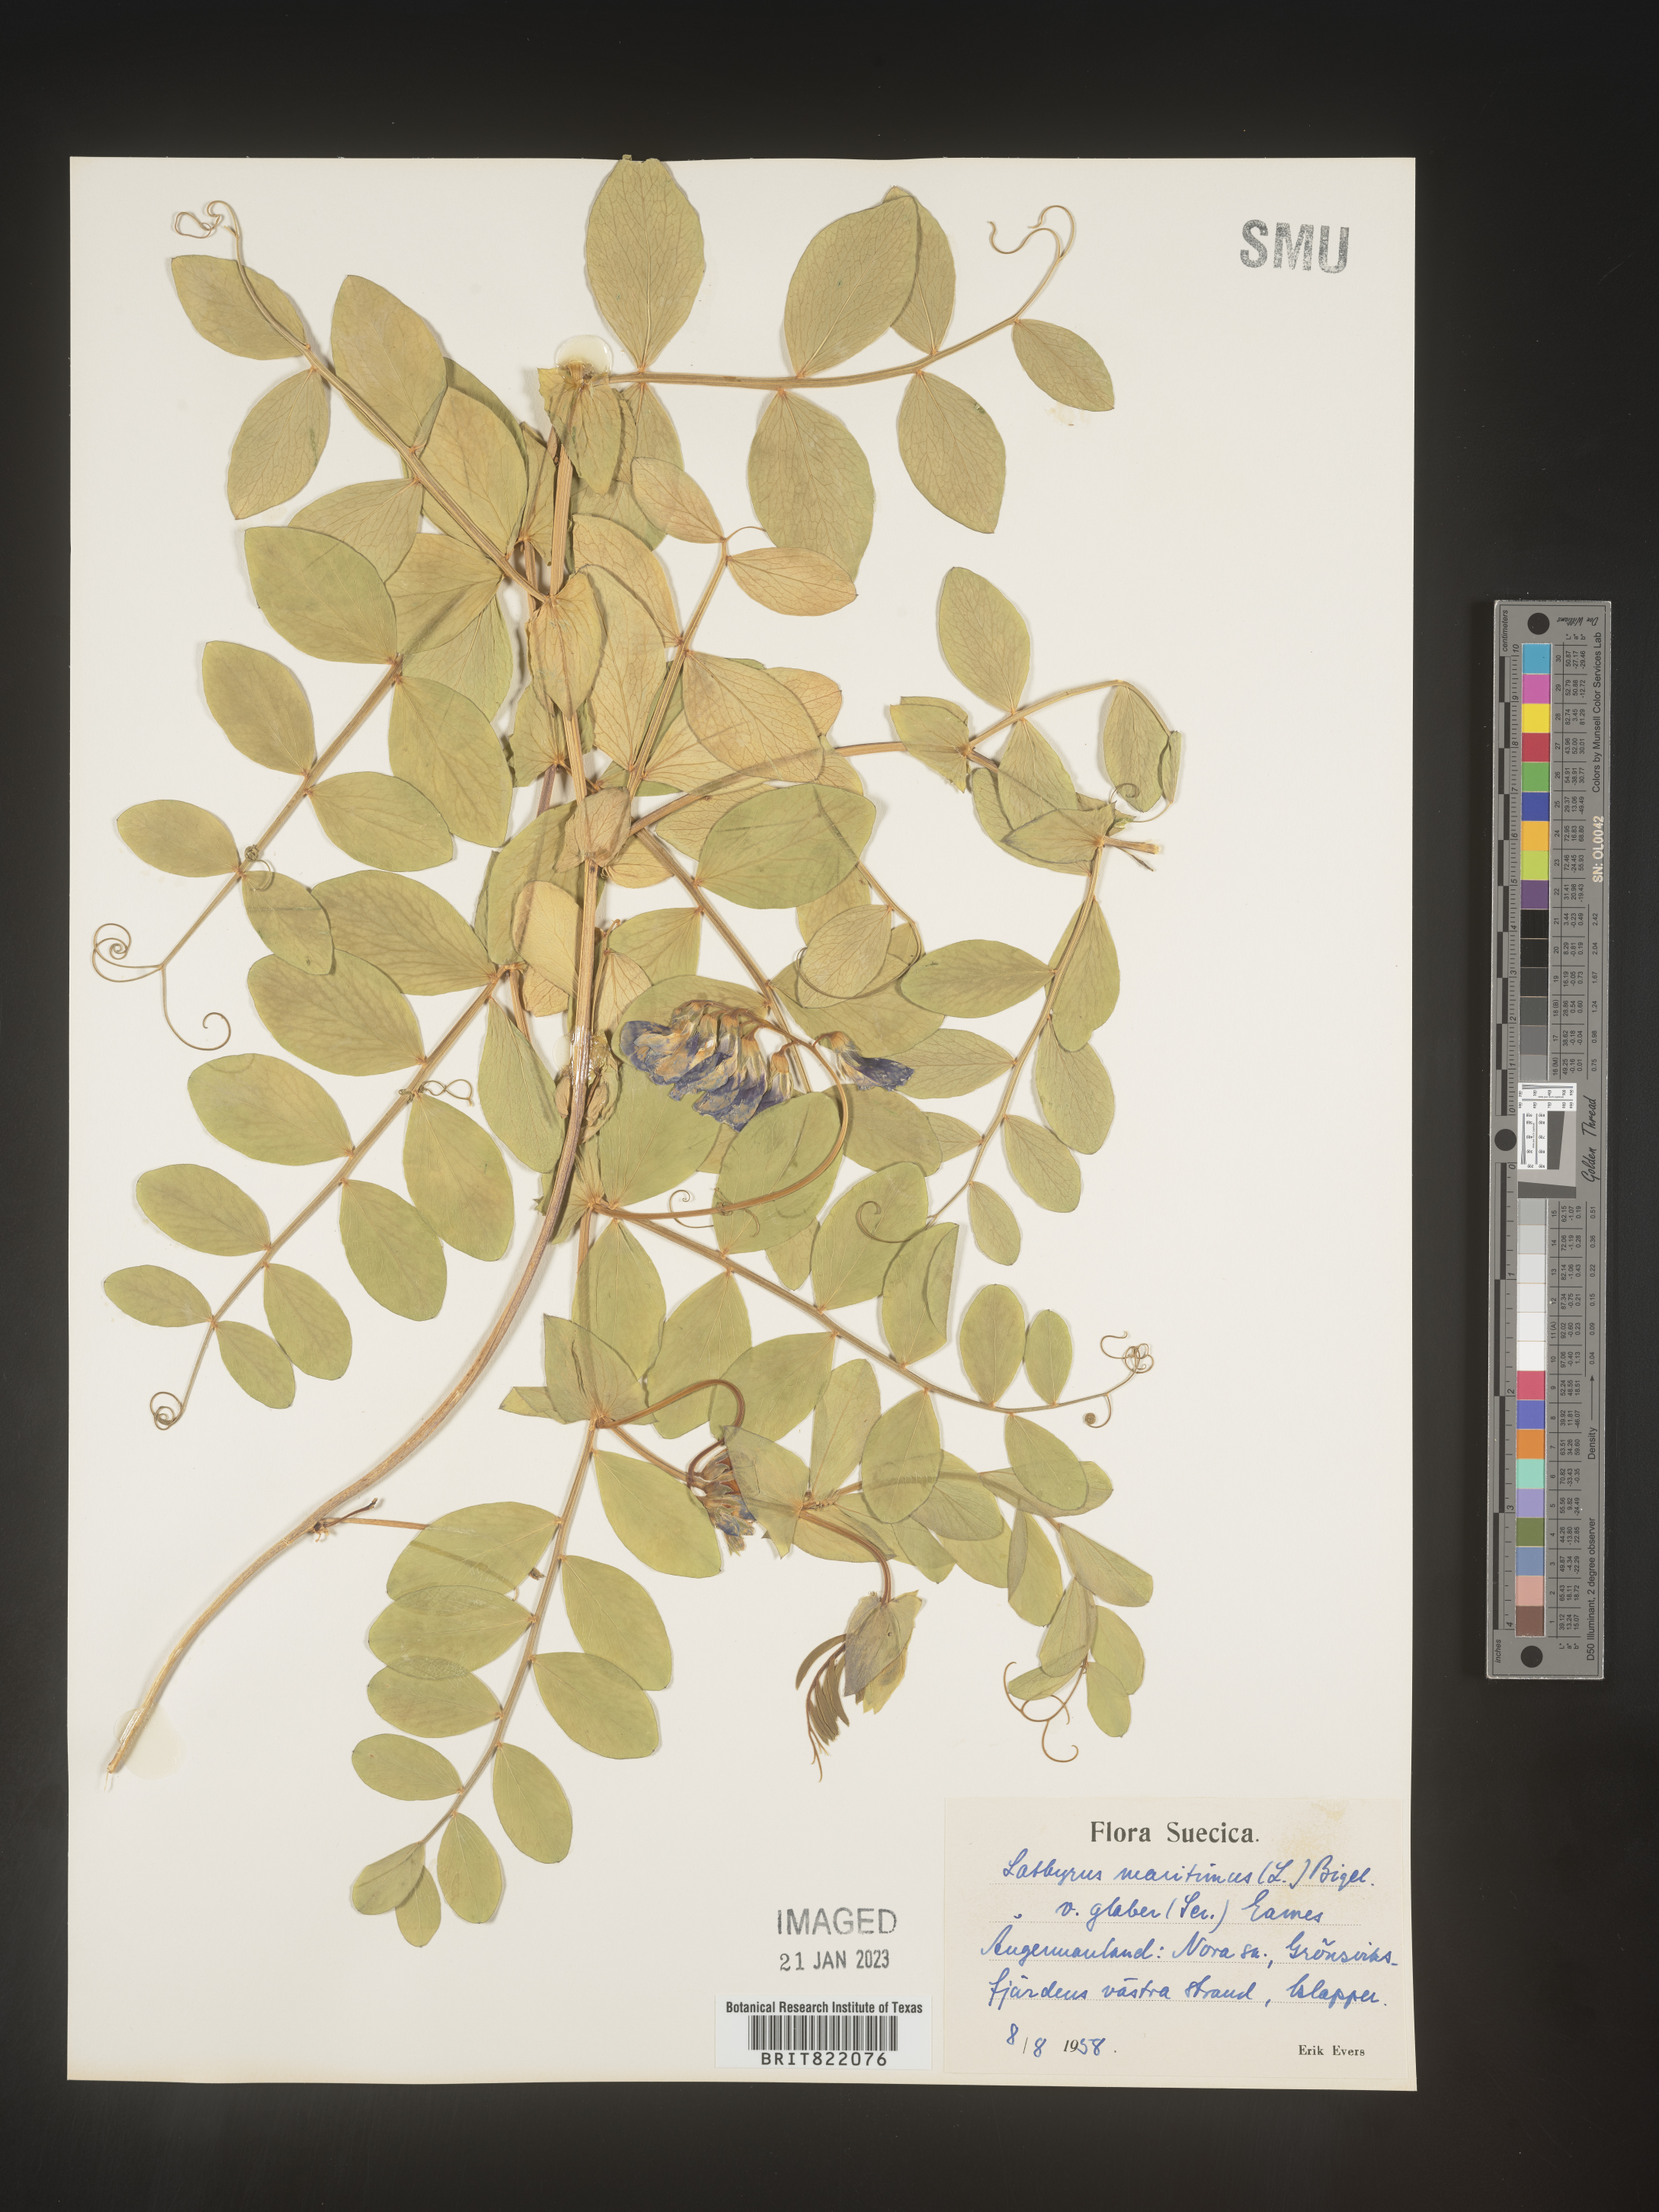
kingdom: Plantae
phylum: Tracheophyta
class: Magnoliopsida
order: Fabales
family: Fabaceae
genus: Lathyrus
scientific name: Lathyrus
